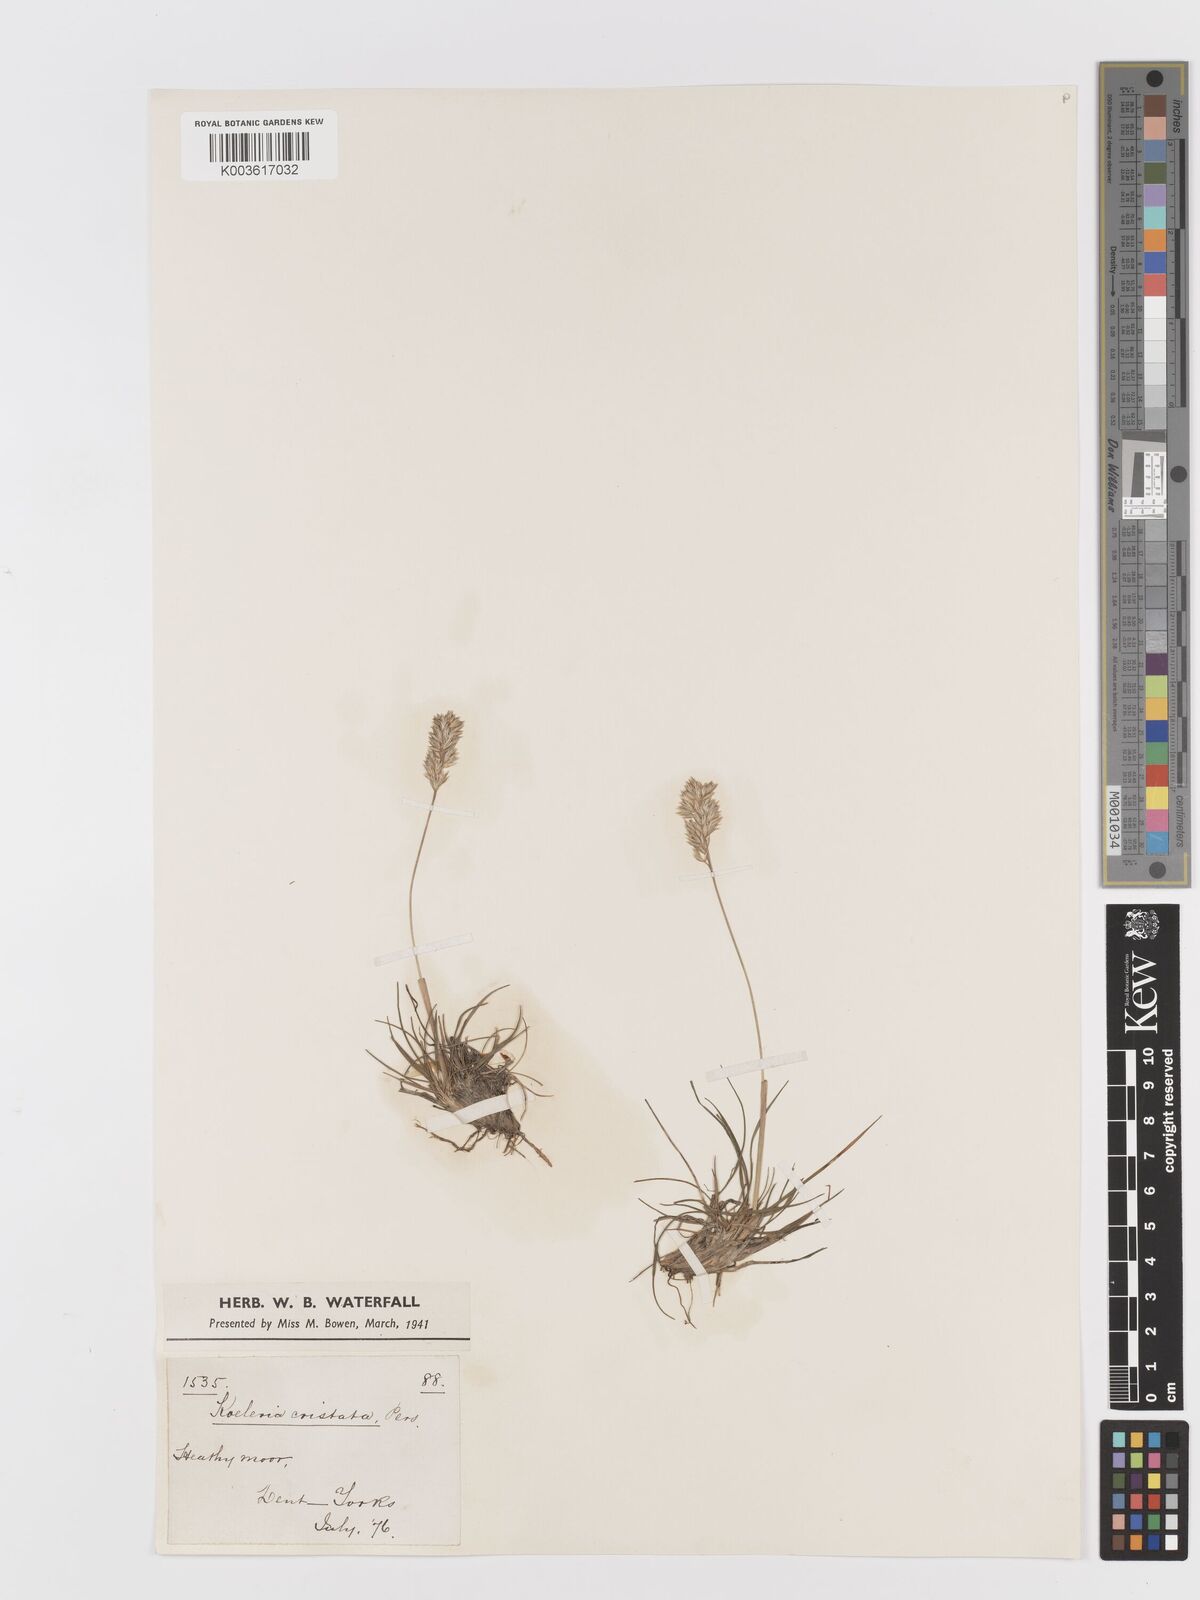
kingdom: Plantae
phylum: Tracheophyta
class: Liliopsida
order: Poales
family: Poaceae
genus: Koeleria
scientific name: Koeleria macrantha
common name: Crested hair-grass
